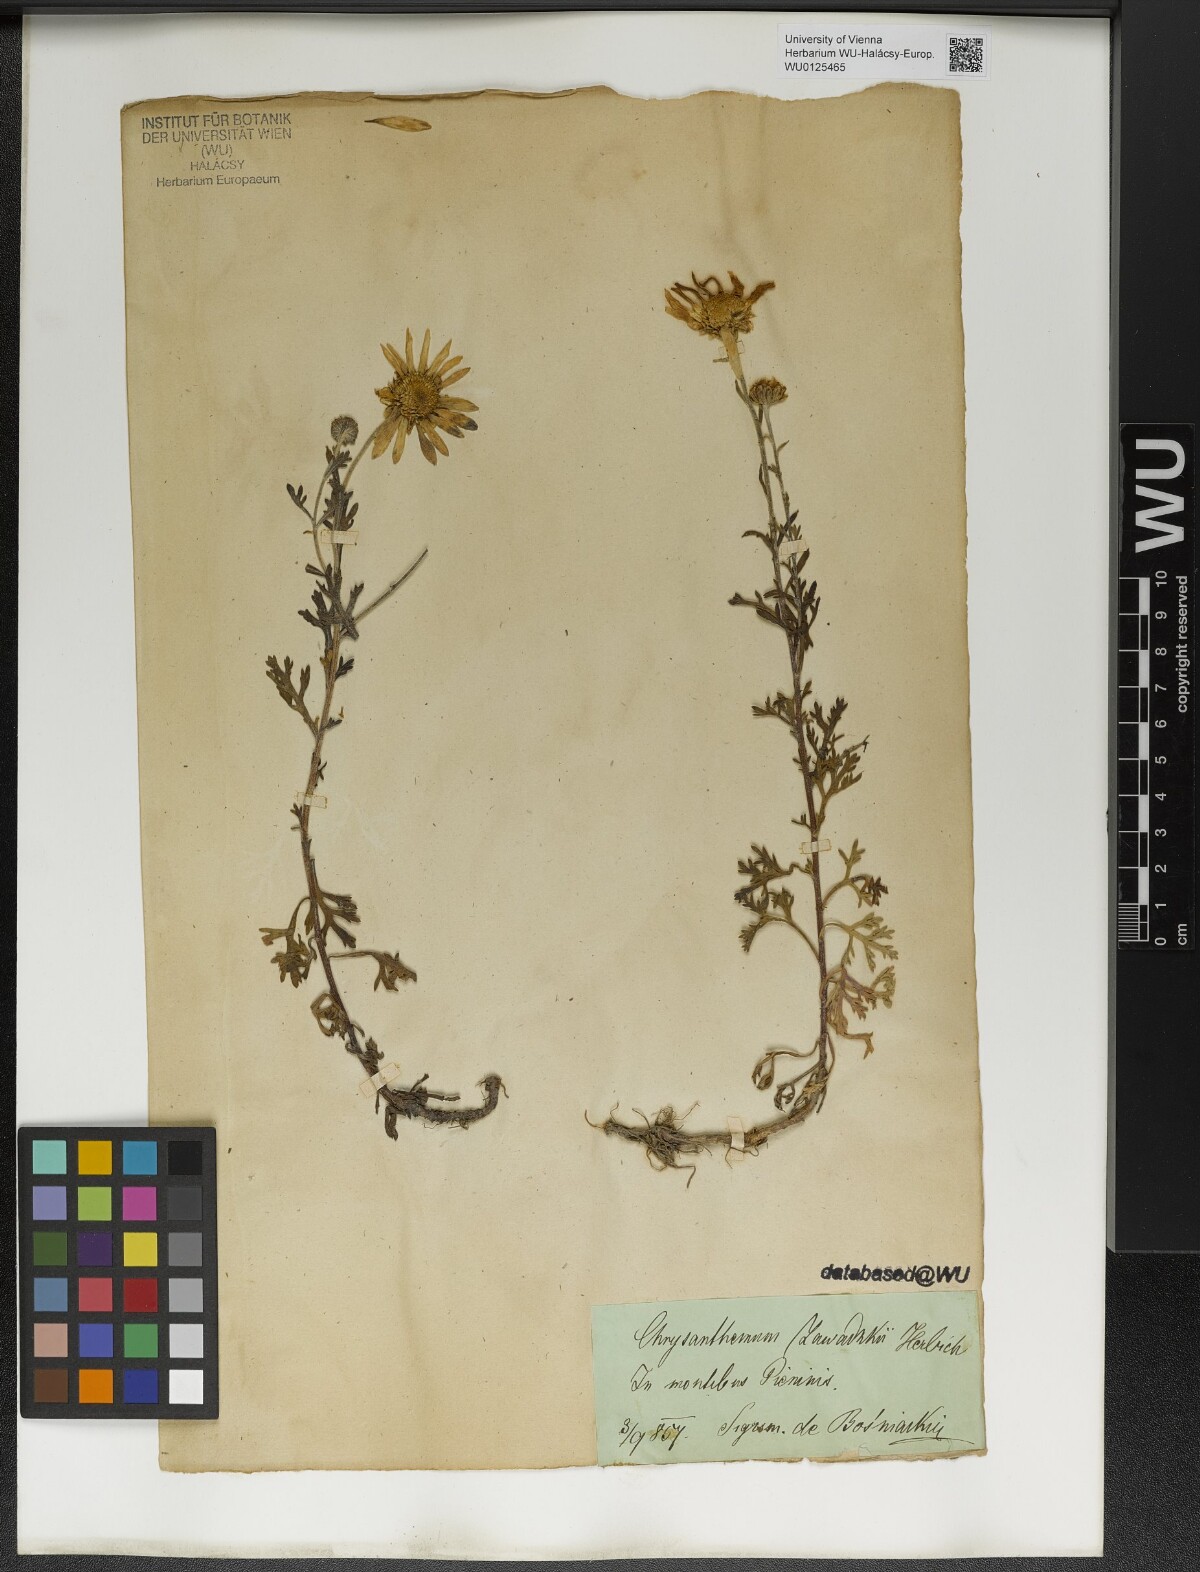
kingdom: Plantae
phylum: Tracheophyta
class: Magnoliopsida
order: Asterales
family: Asteraceae
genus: Chrysanthemum
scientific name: Chrysanthemum zawadzkii
